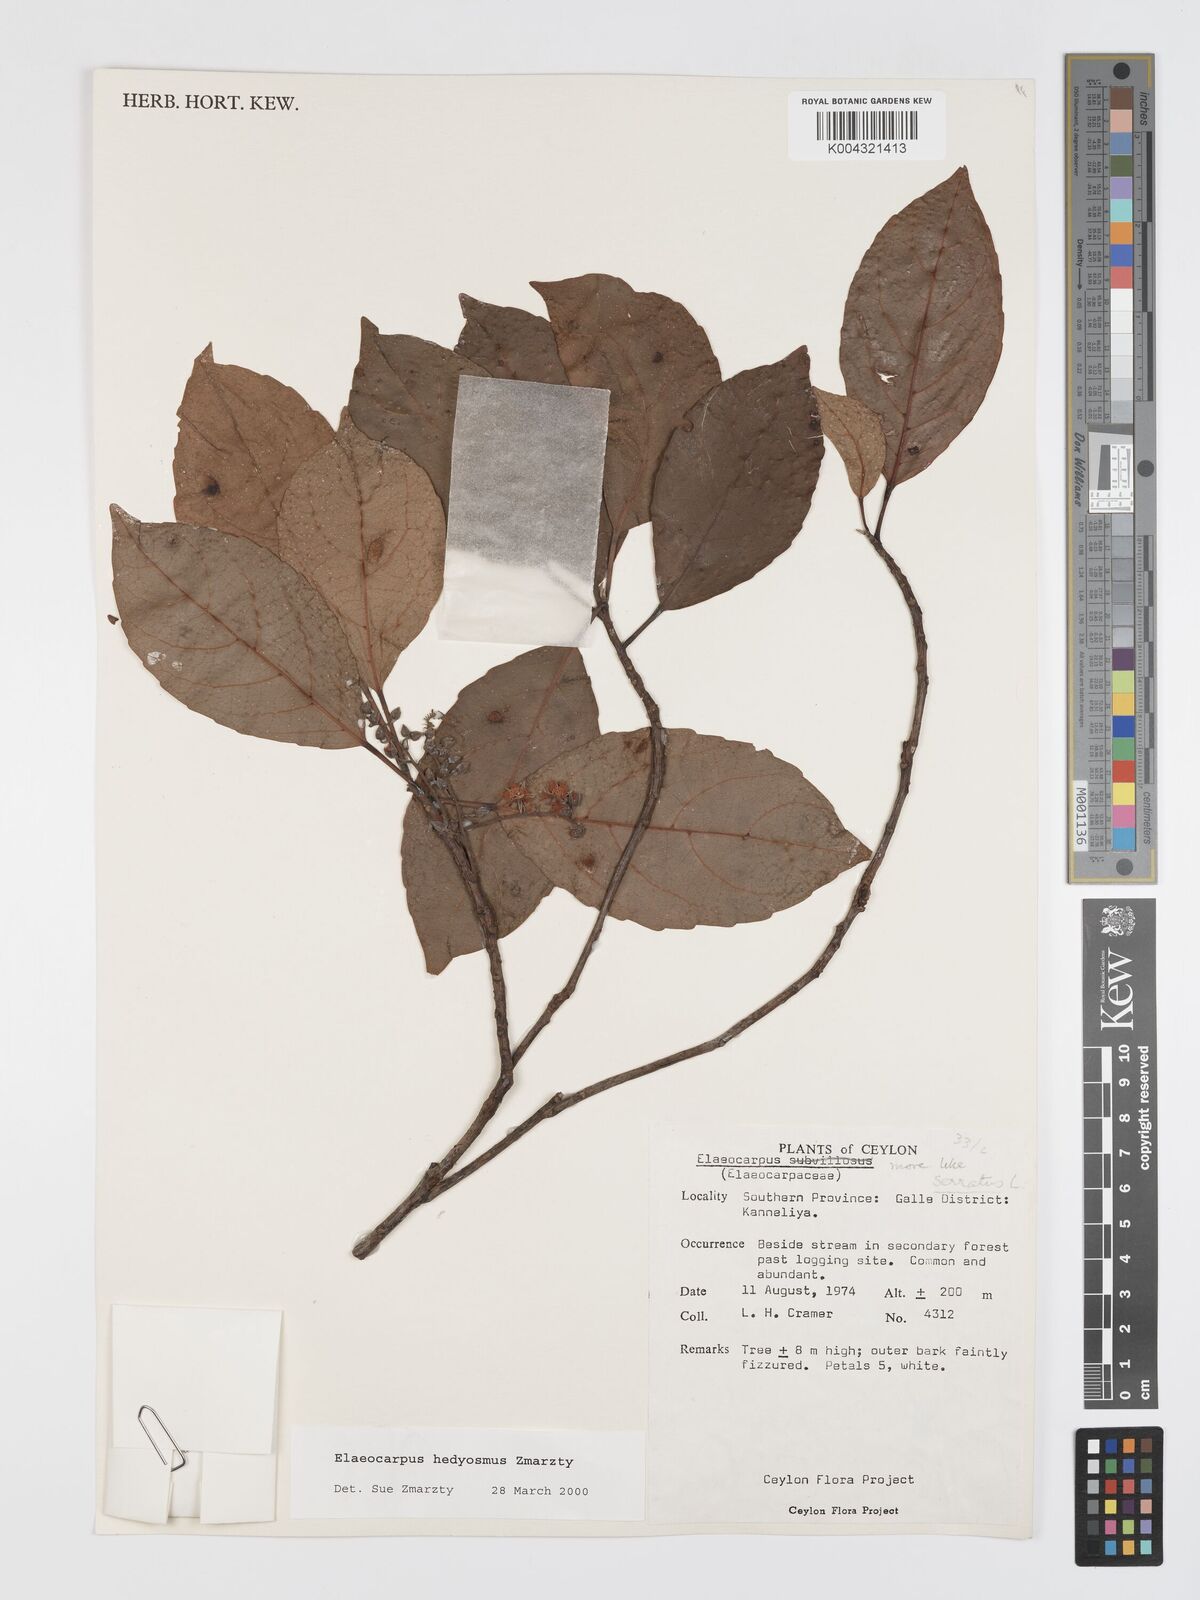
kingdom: Plantae
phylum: Tracheophyta
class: Magnoliopsida
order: Oxalidales
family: Elaeocarpaceae
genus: Elaeocarpus
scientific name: Elaeocarpus hedyosmus
